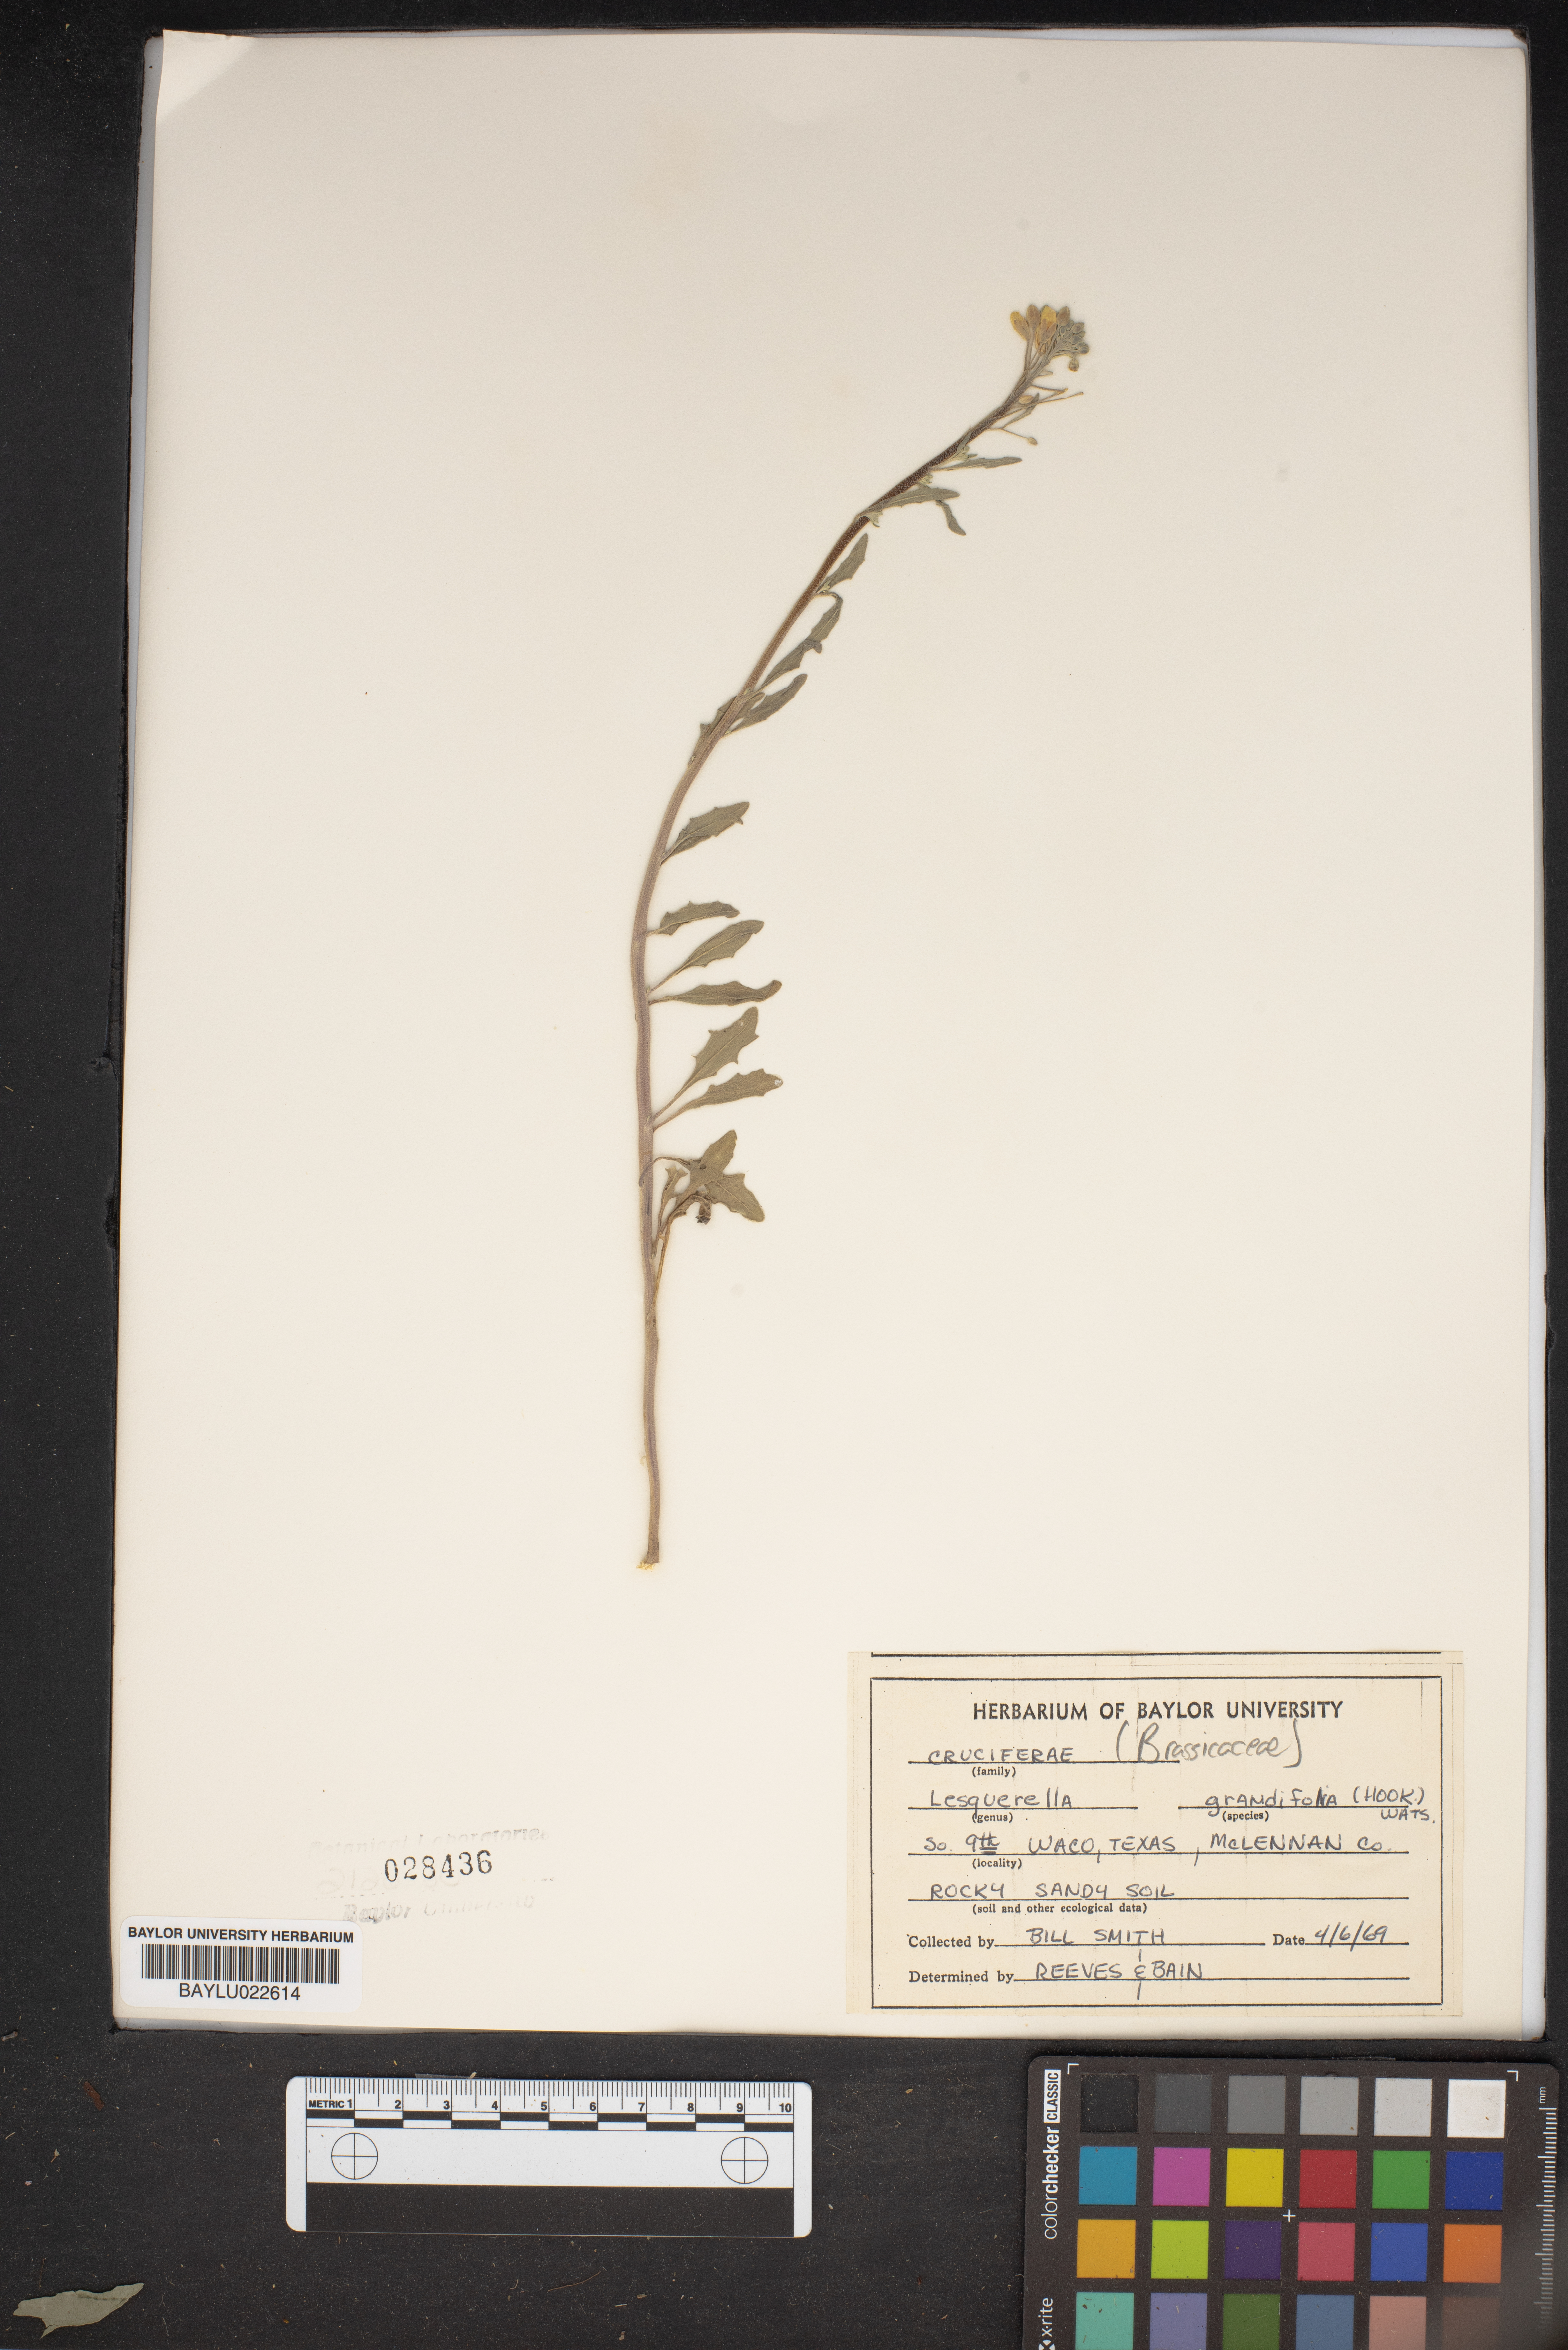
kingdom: Plantae
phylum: Tracheophyta
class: Magnoliopsida
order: Brassicales
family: Brassicaceae
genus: Paysonia
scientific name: Paysonia grandiflora
